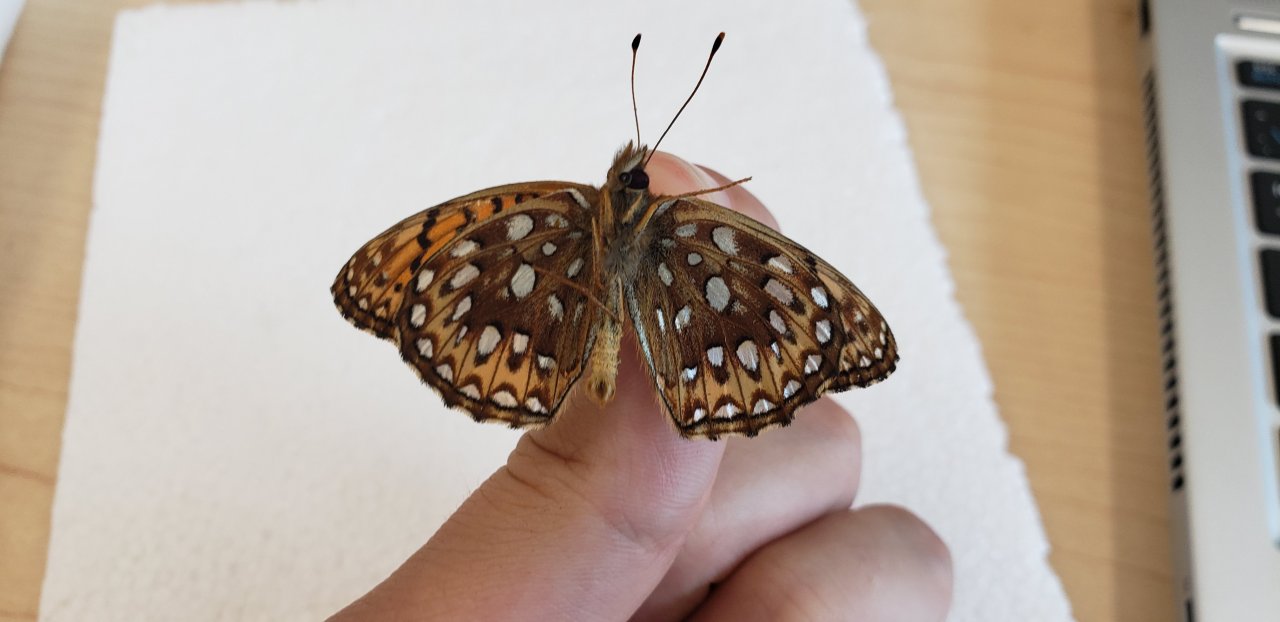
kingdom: Animalia
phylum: Arthropoda
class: Insecta
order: Lepidoptera
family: Nymphalidae
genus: Speyeria
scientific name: Speyeria atlantis
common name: Atlantis Fritillary
